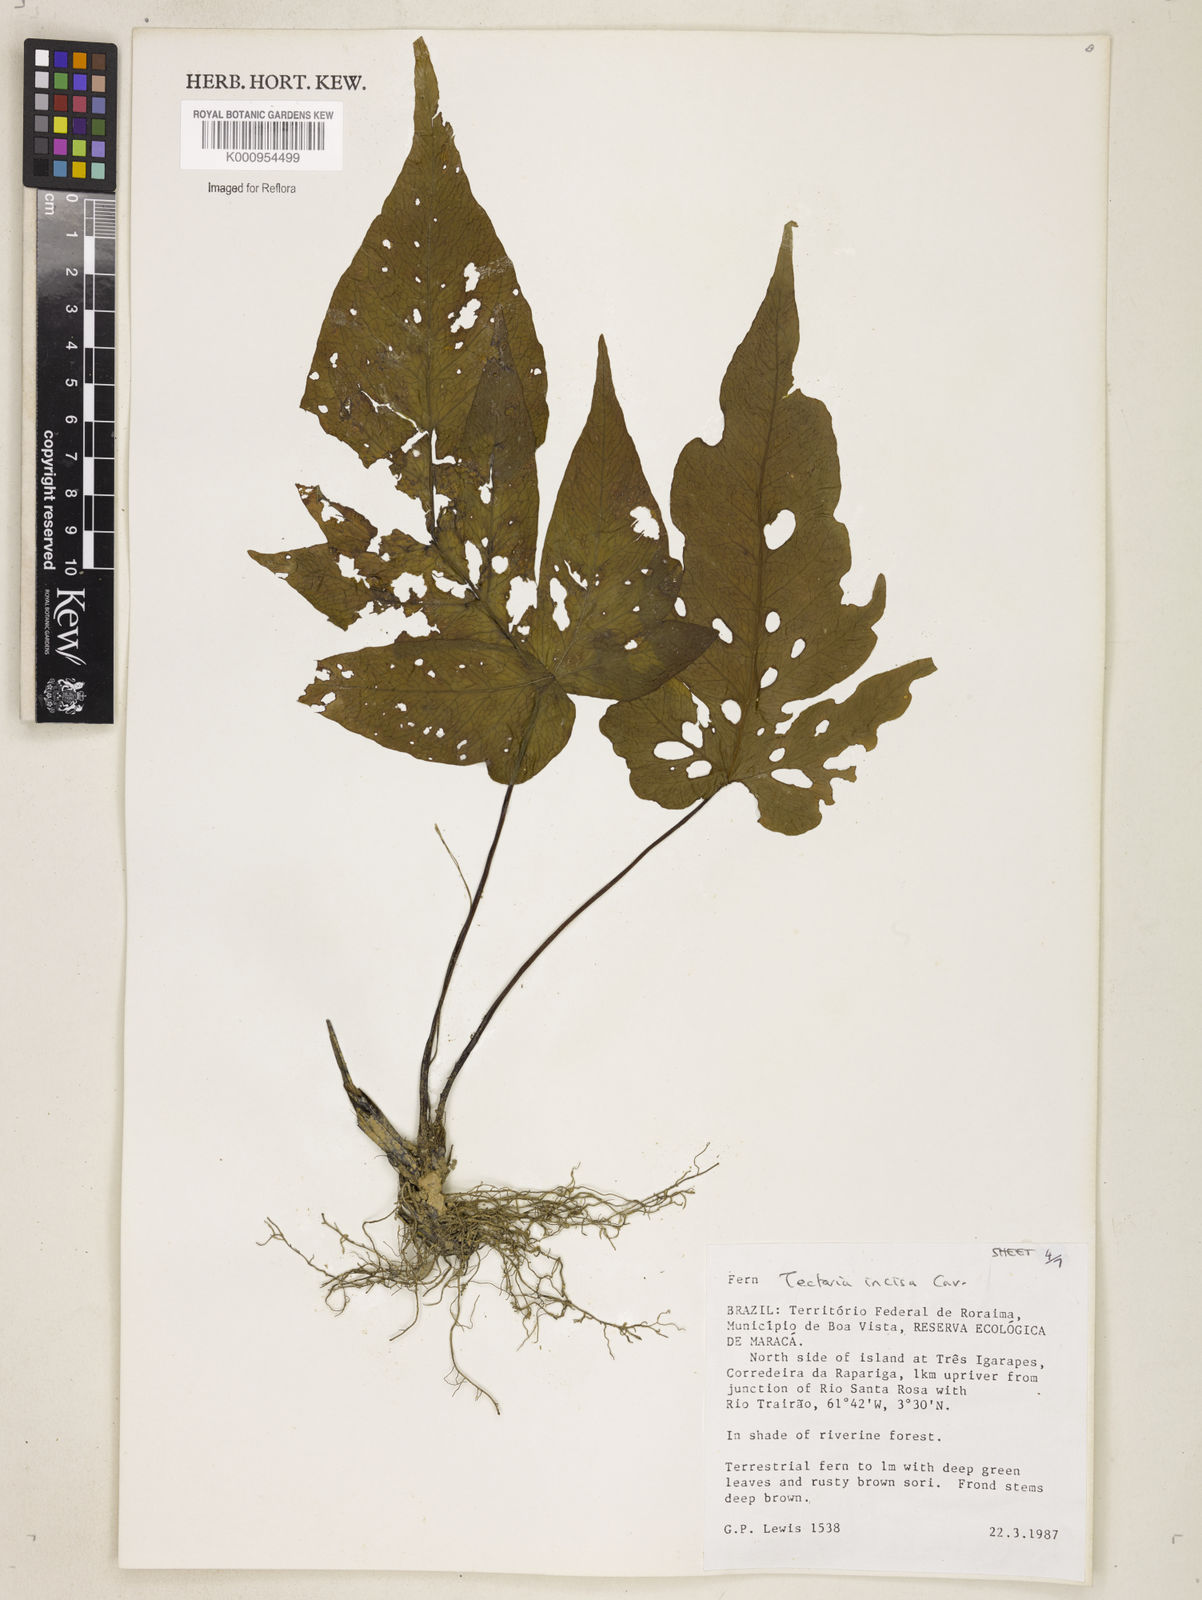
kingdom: Plantae
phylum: Tracheophyta
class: Polypodiopsida
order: Polypodiales
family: Tectariaceae
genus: Tectaria
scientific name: Tectaria incisa
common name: Incised halberd fern
